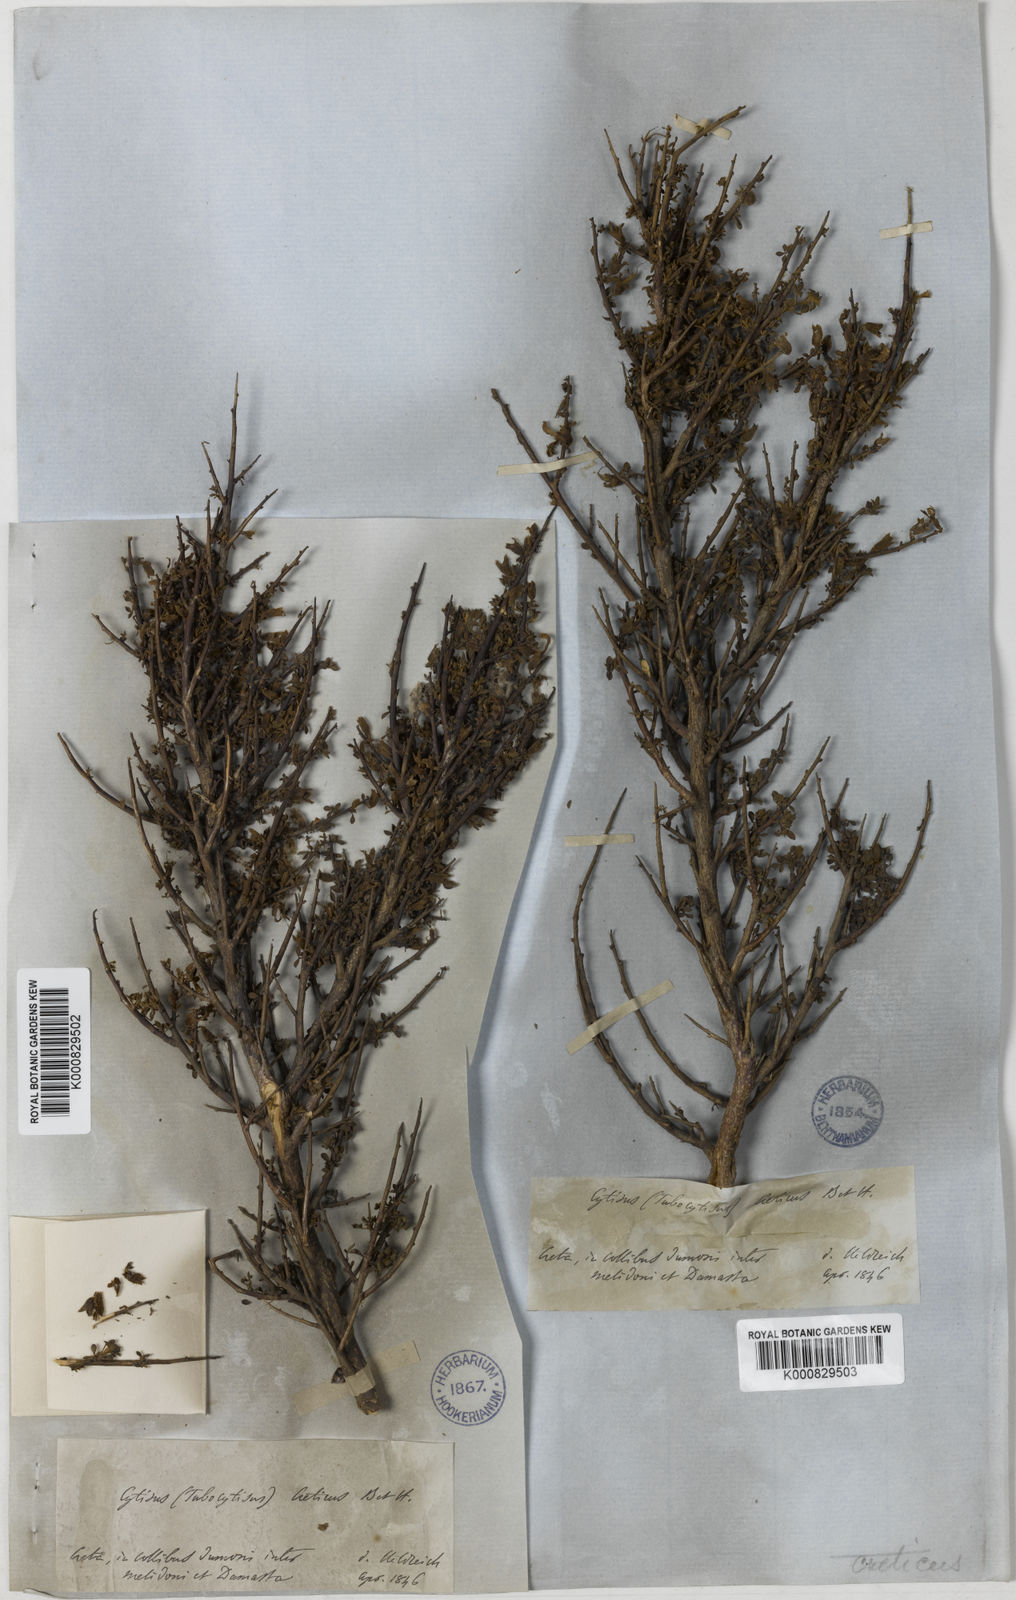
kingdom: Plantae
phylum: Tracheophyta
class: Magnoliopsida
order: Fabales
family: Fabaceae
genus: Chamaecytisus
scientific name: Chamaecytisus spinescens
